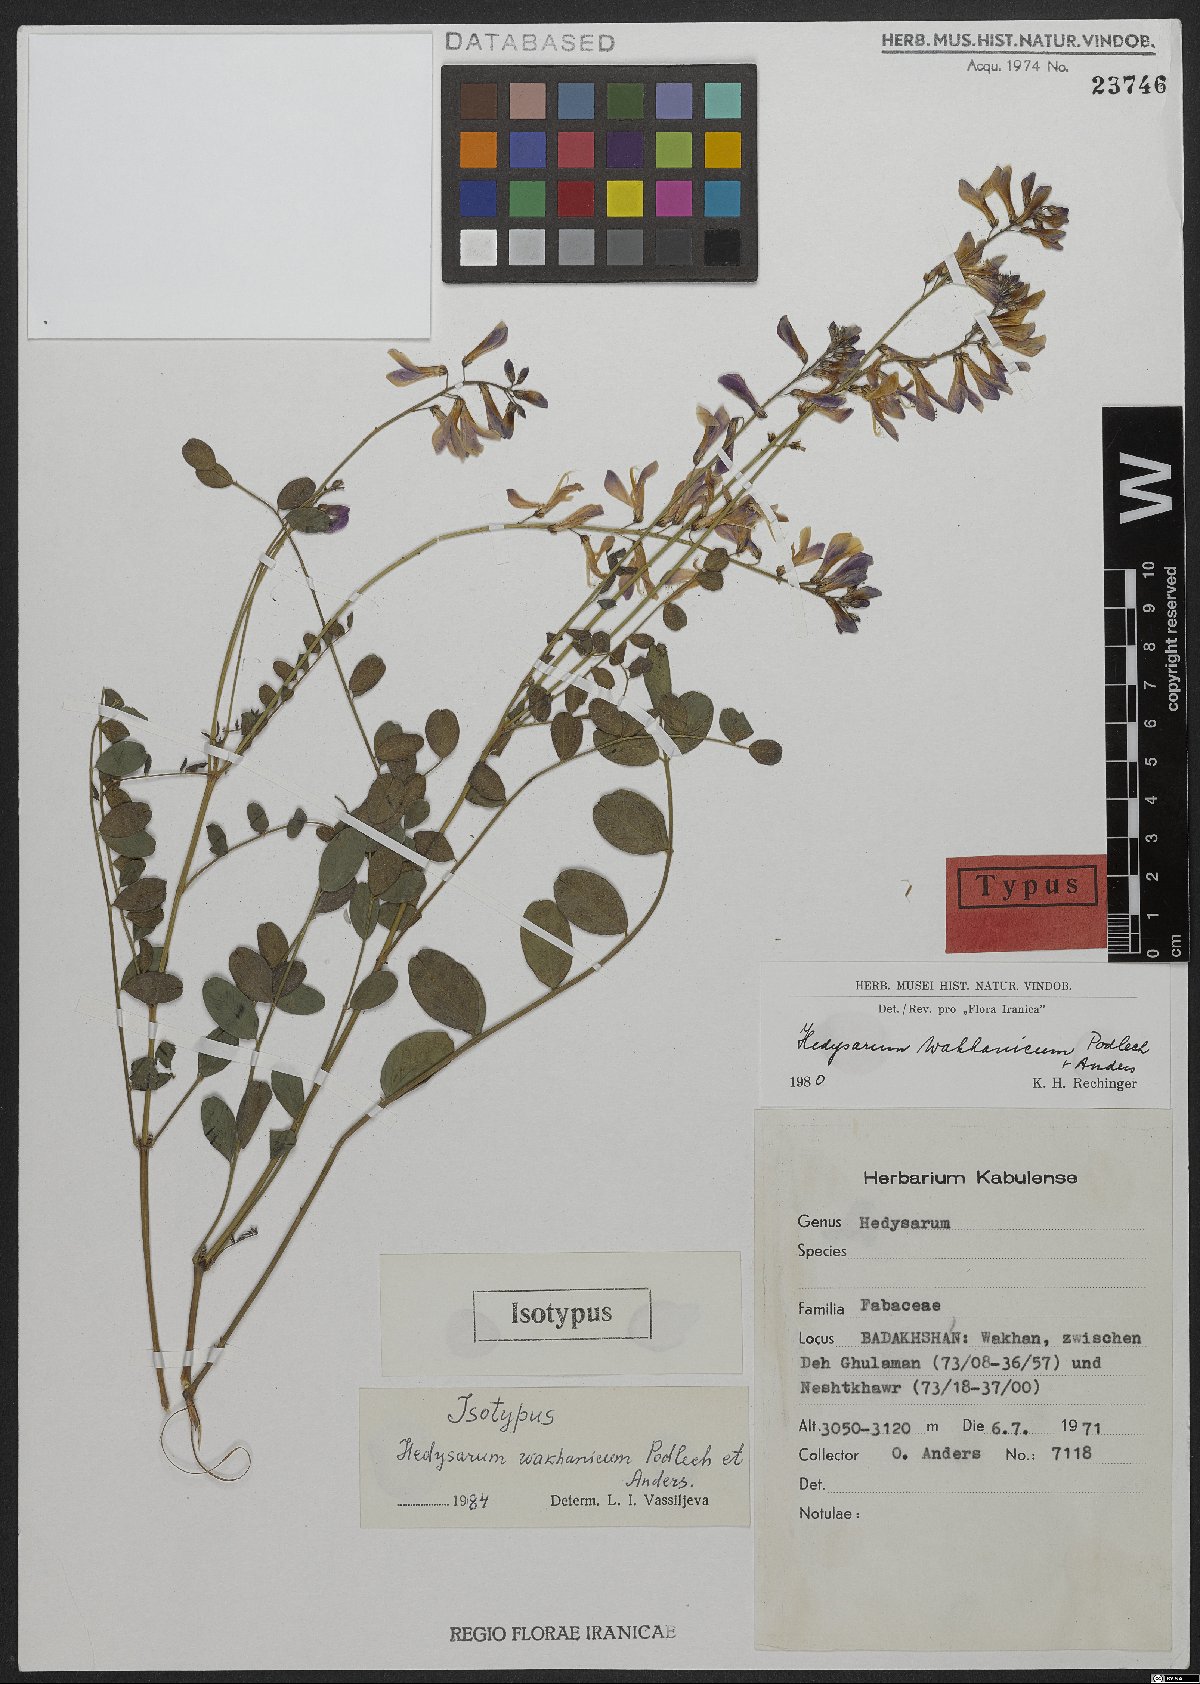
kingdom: Plantae
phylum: Tracheophyta
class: Magnoliopsida
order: Fabales
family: Fabaceae
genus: Hedysarum
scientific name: Hedysarum wakhanicum
